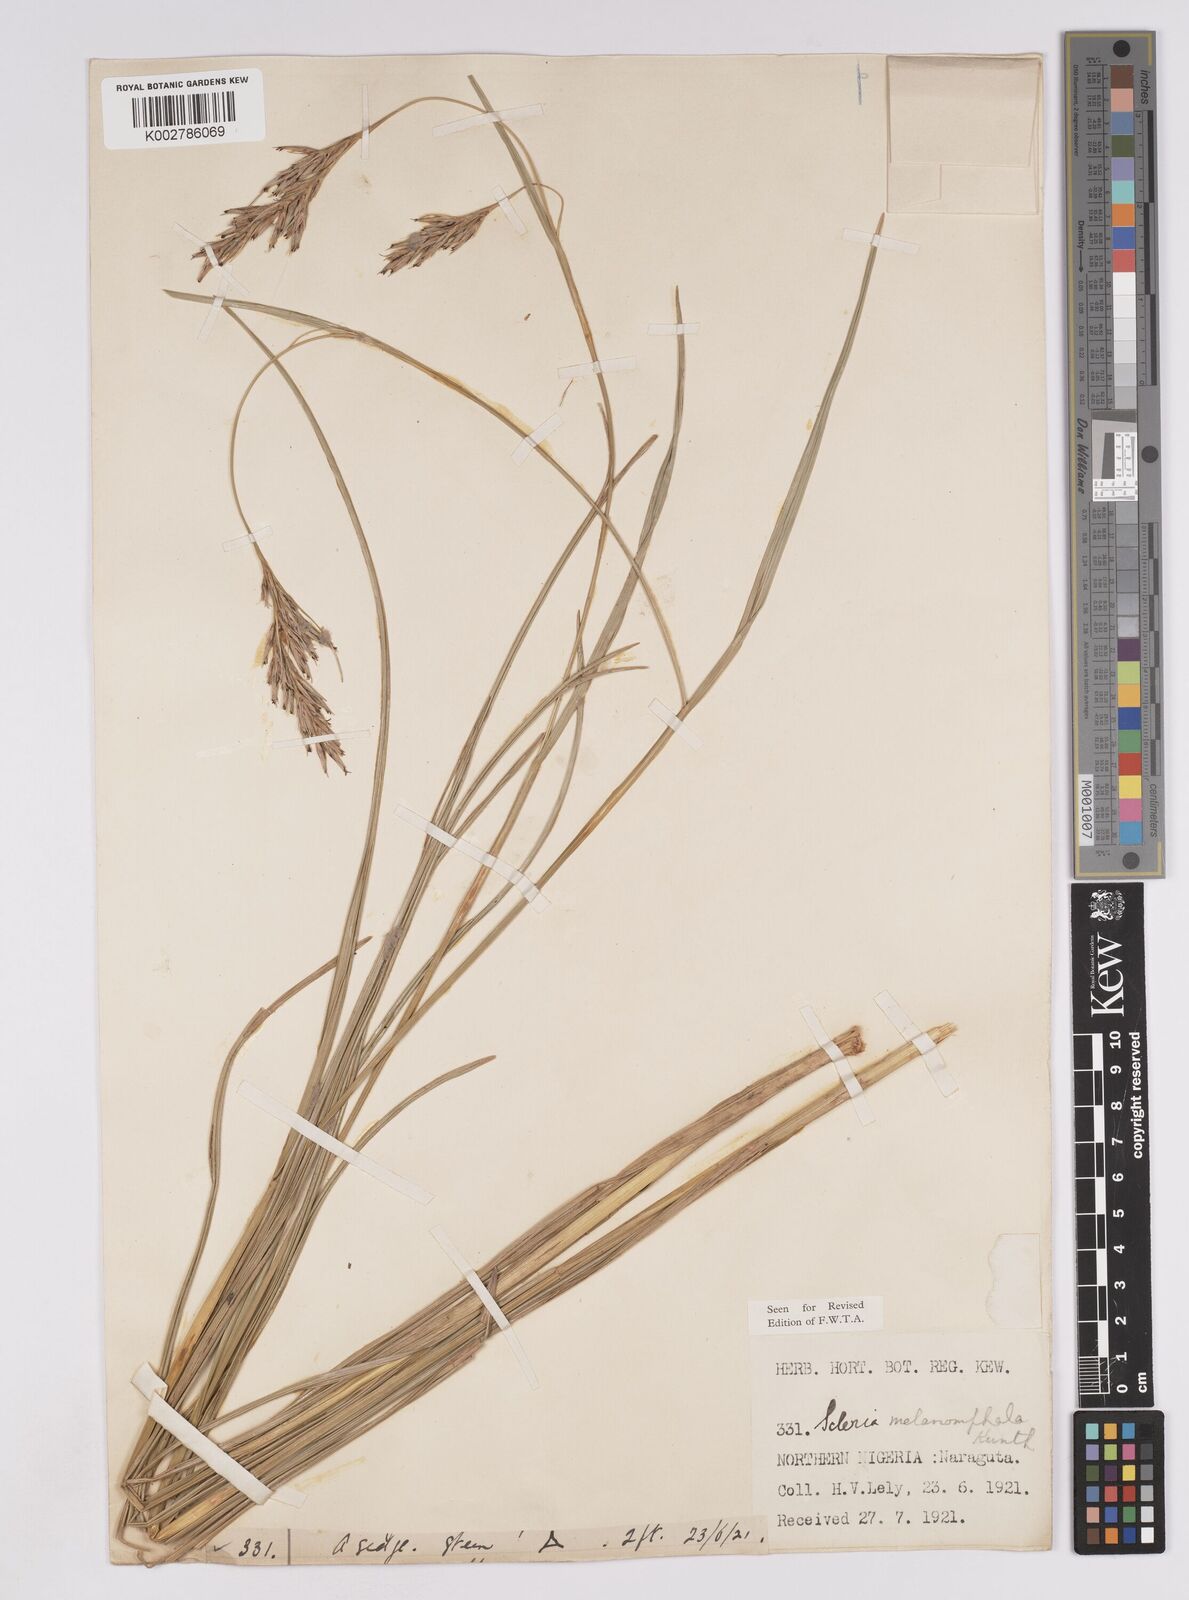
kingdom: Plantae
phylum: Tracheophyta
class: Liliopsida
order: Poales
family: Cyperaceae
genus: Scleria
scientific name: Scleria melanomphala
